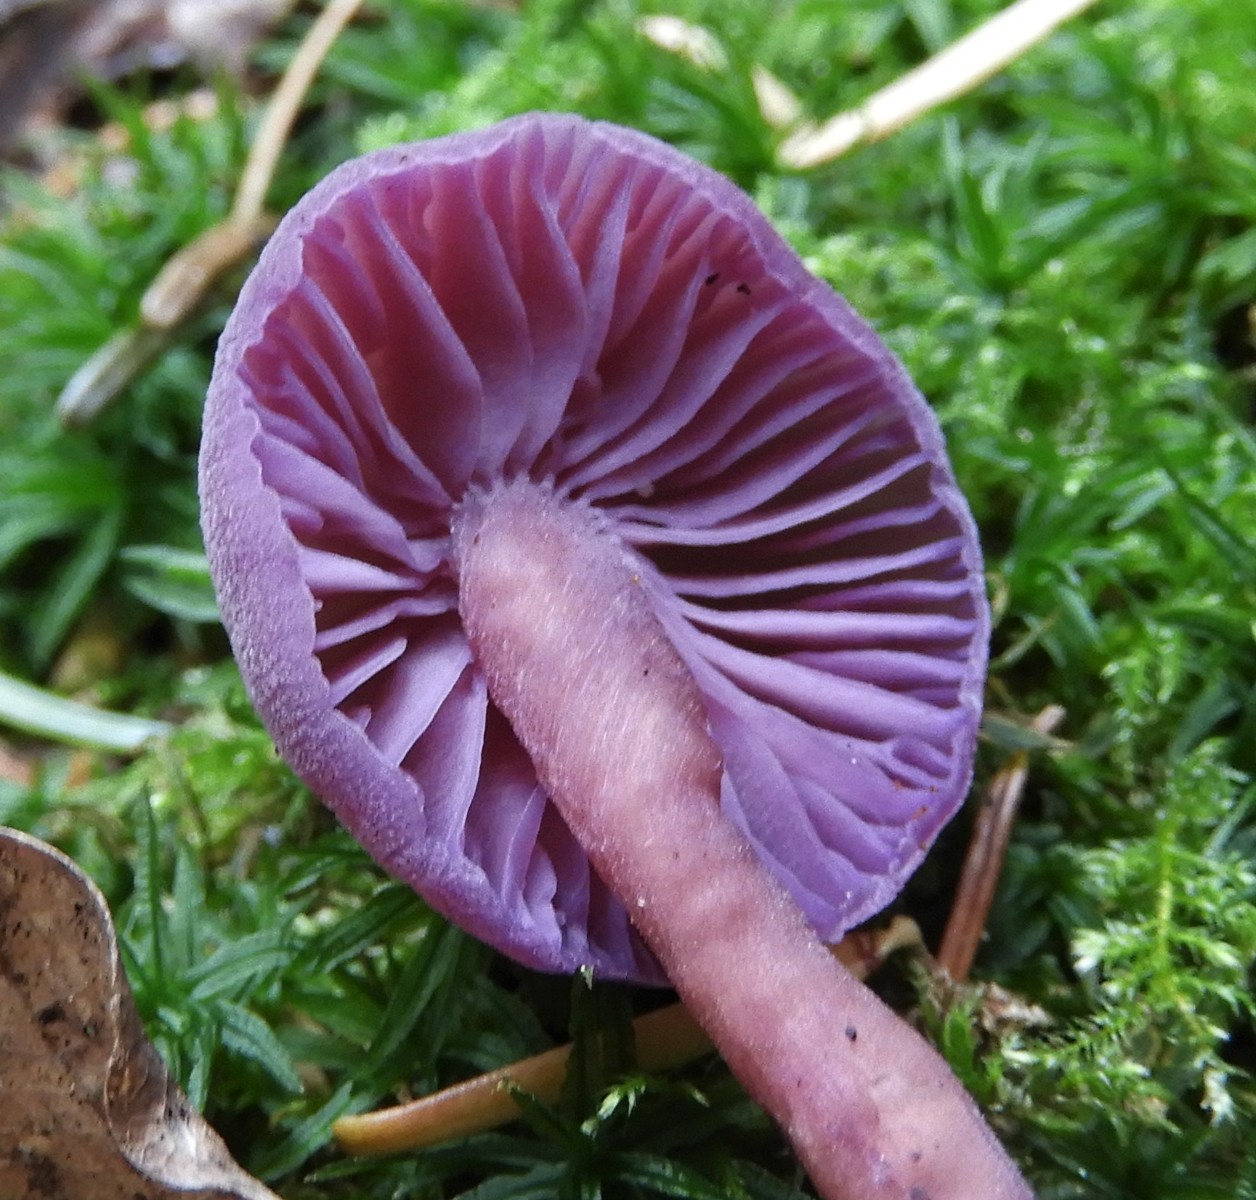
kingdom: Fungi
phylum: Basidiomycota
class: Agaricomycetes
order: Agaricales
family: Hydnangiaceae
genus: Laccaria
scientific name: Laccaria amethystina
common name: violet ametysthat
